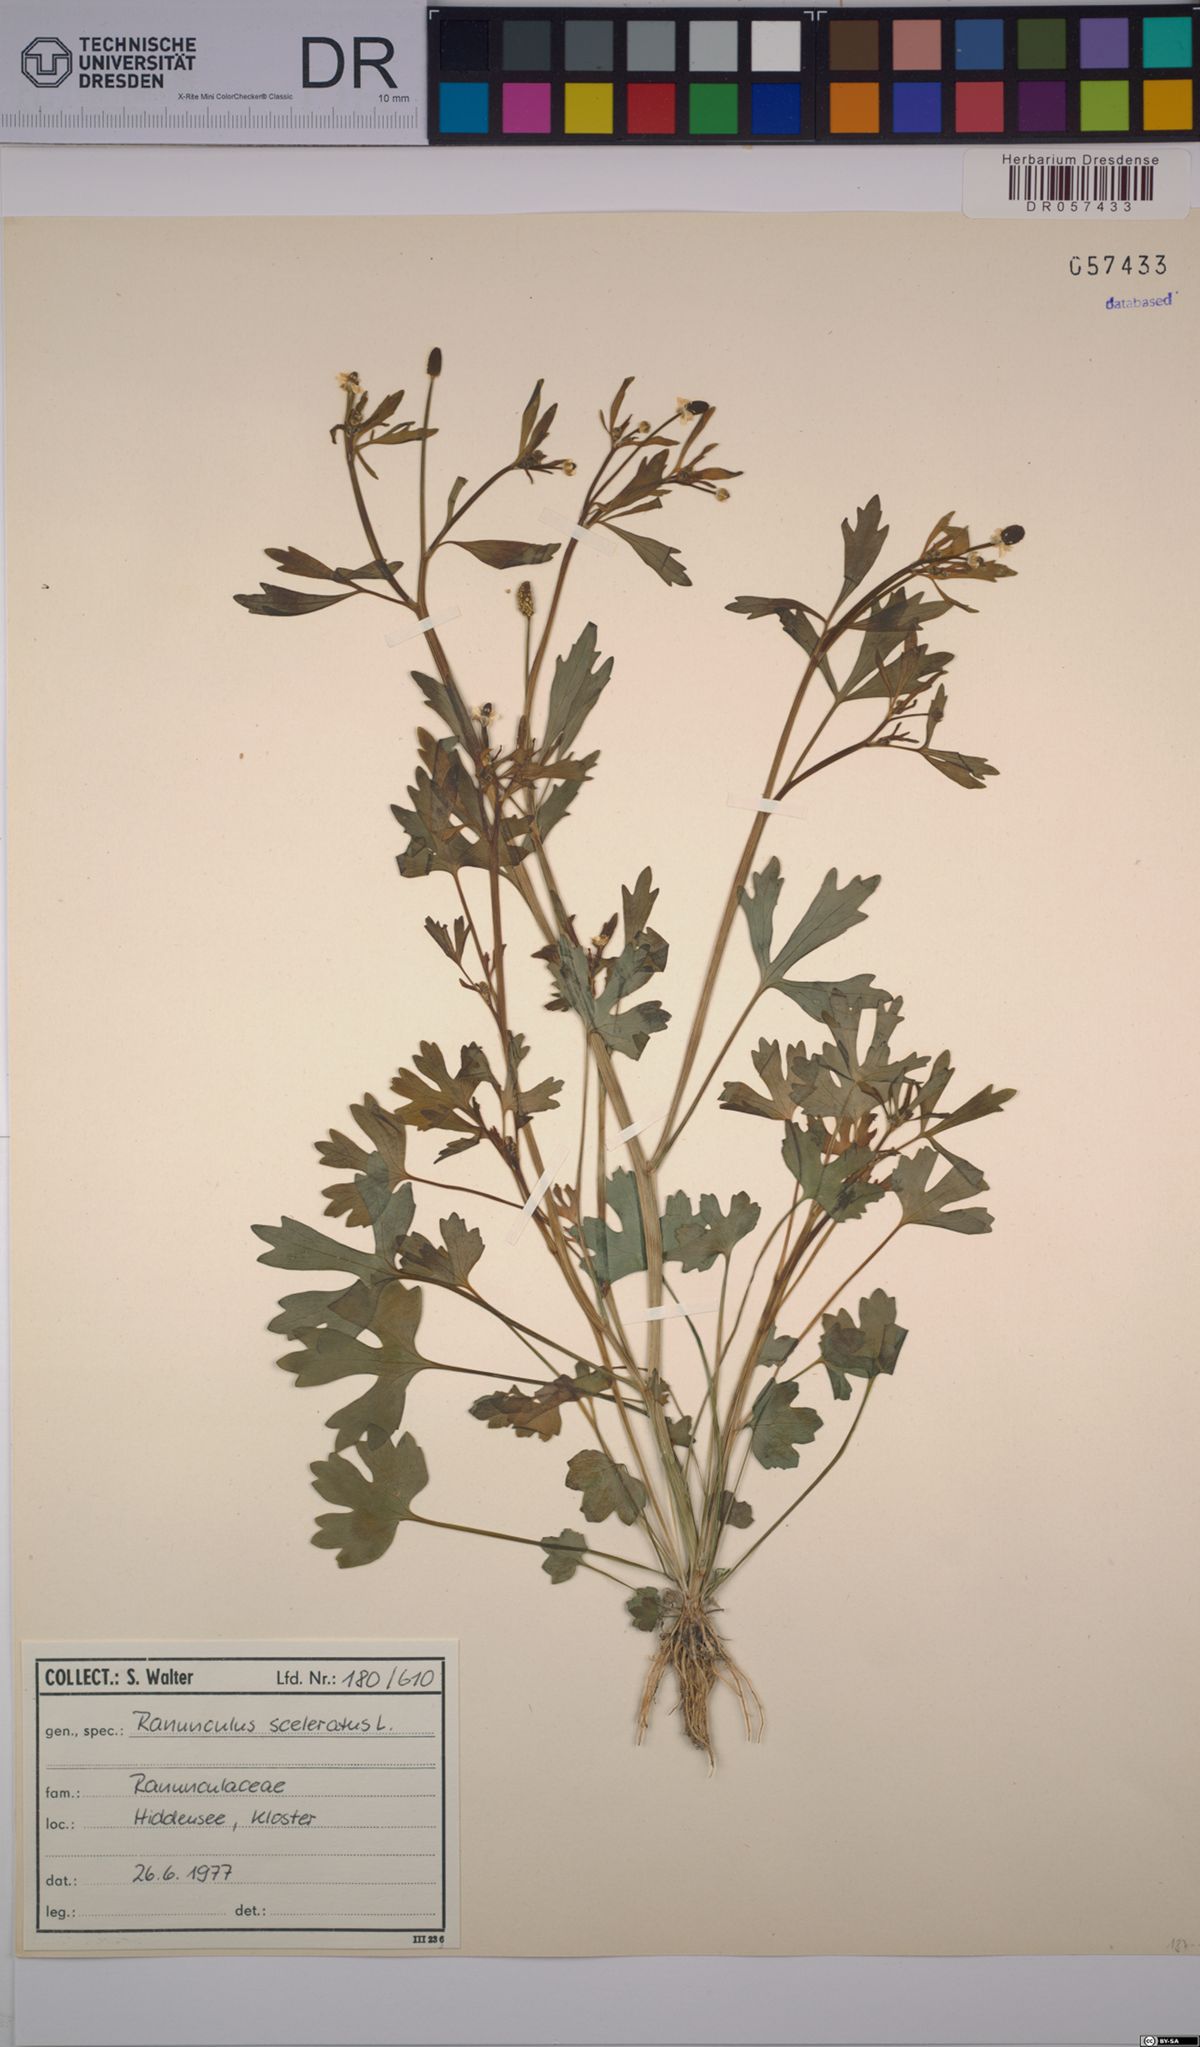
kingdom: Plantae
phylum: Tracheophyta
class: Magnoliopsida
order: Ranunculales
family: Ranunculaceae
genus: Ranunculus
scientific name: Ranunculus sceleratus
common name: Celery-leaved buttercup
